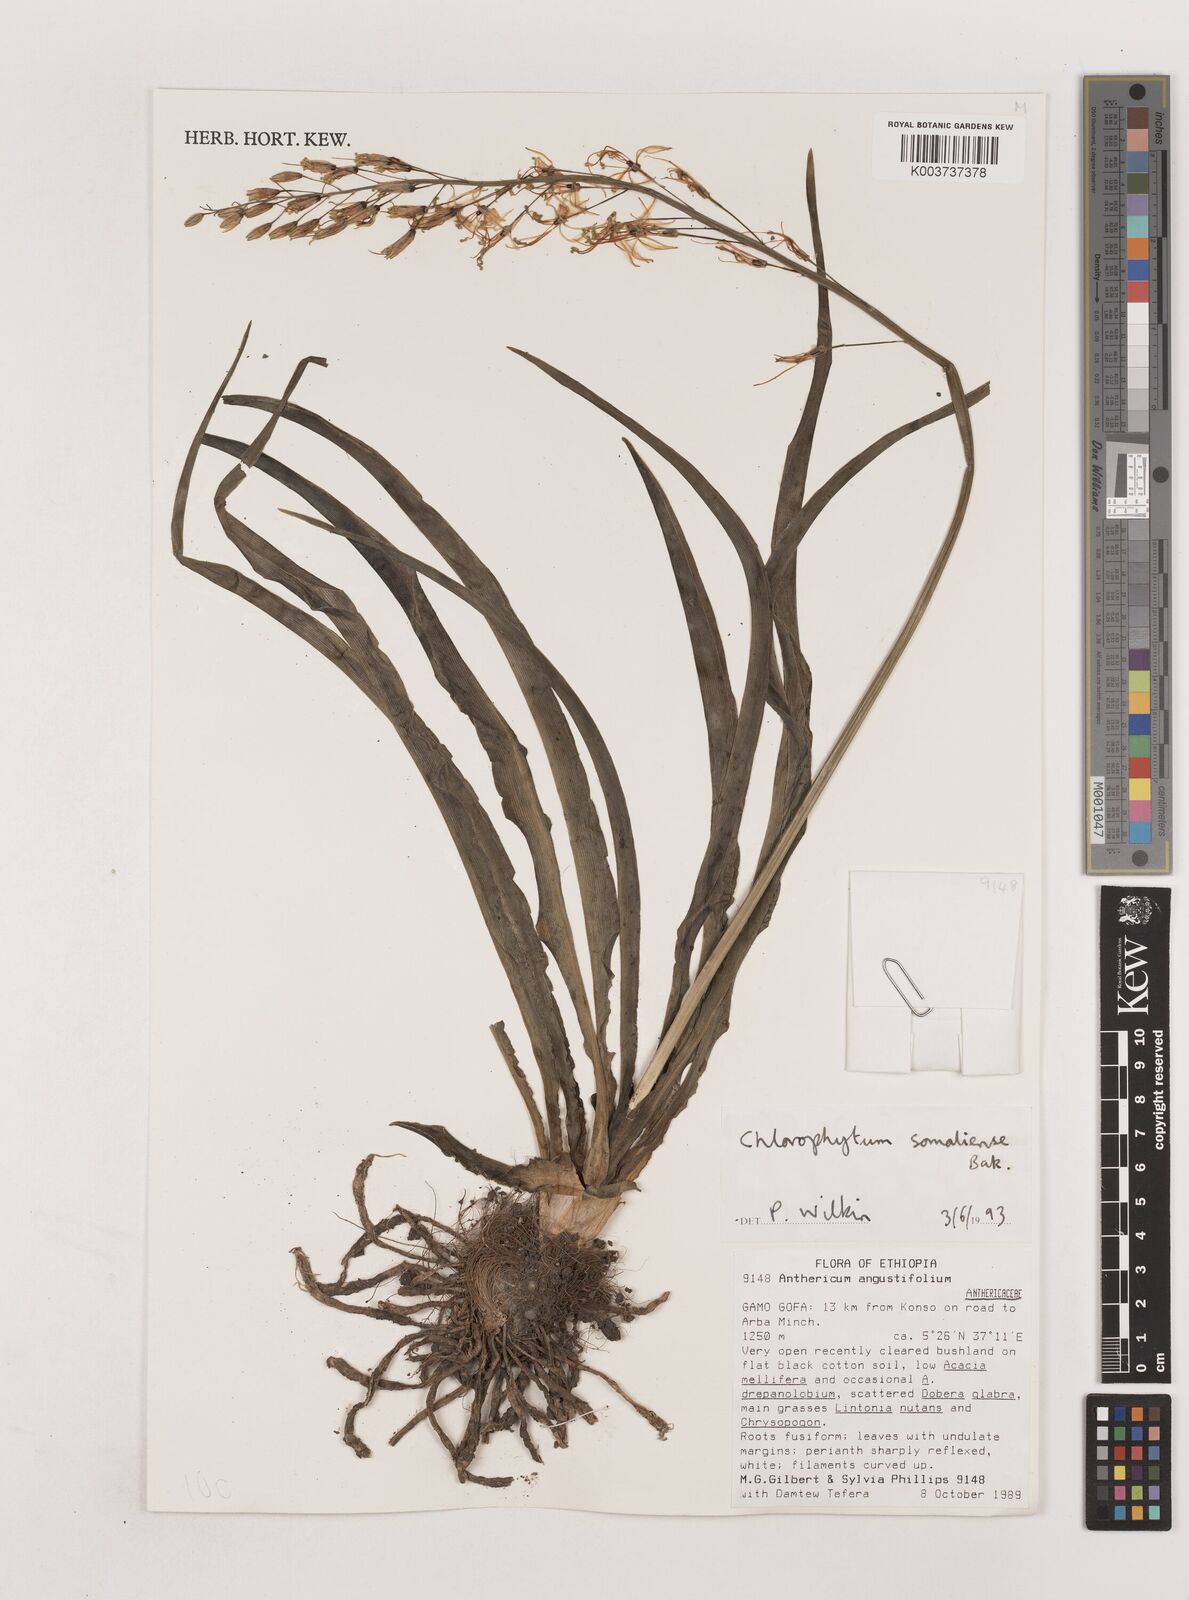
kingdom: Plantae
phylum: Tracheophyta
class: Liliopsida
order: Asparagales
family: Asparagaceae
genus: Chlorophytum
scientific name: Chlorophytum somaliense
